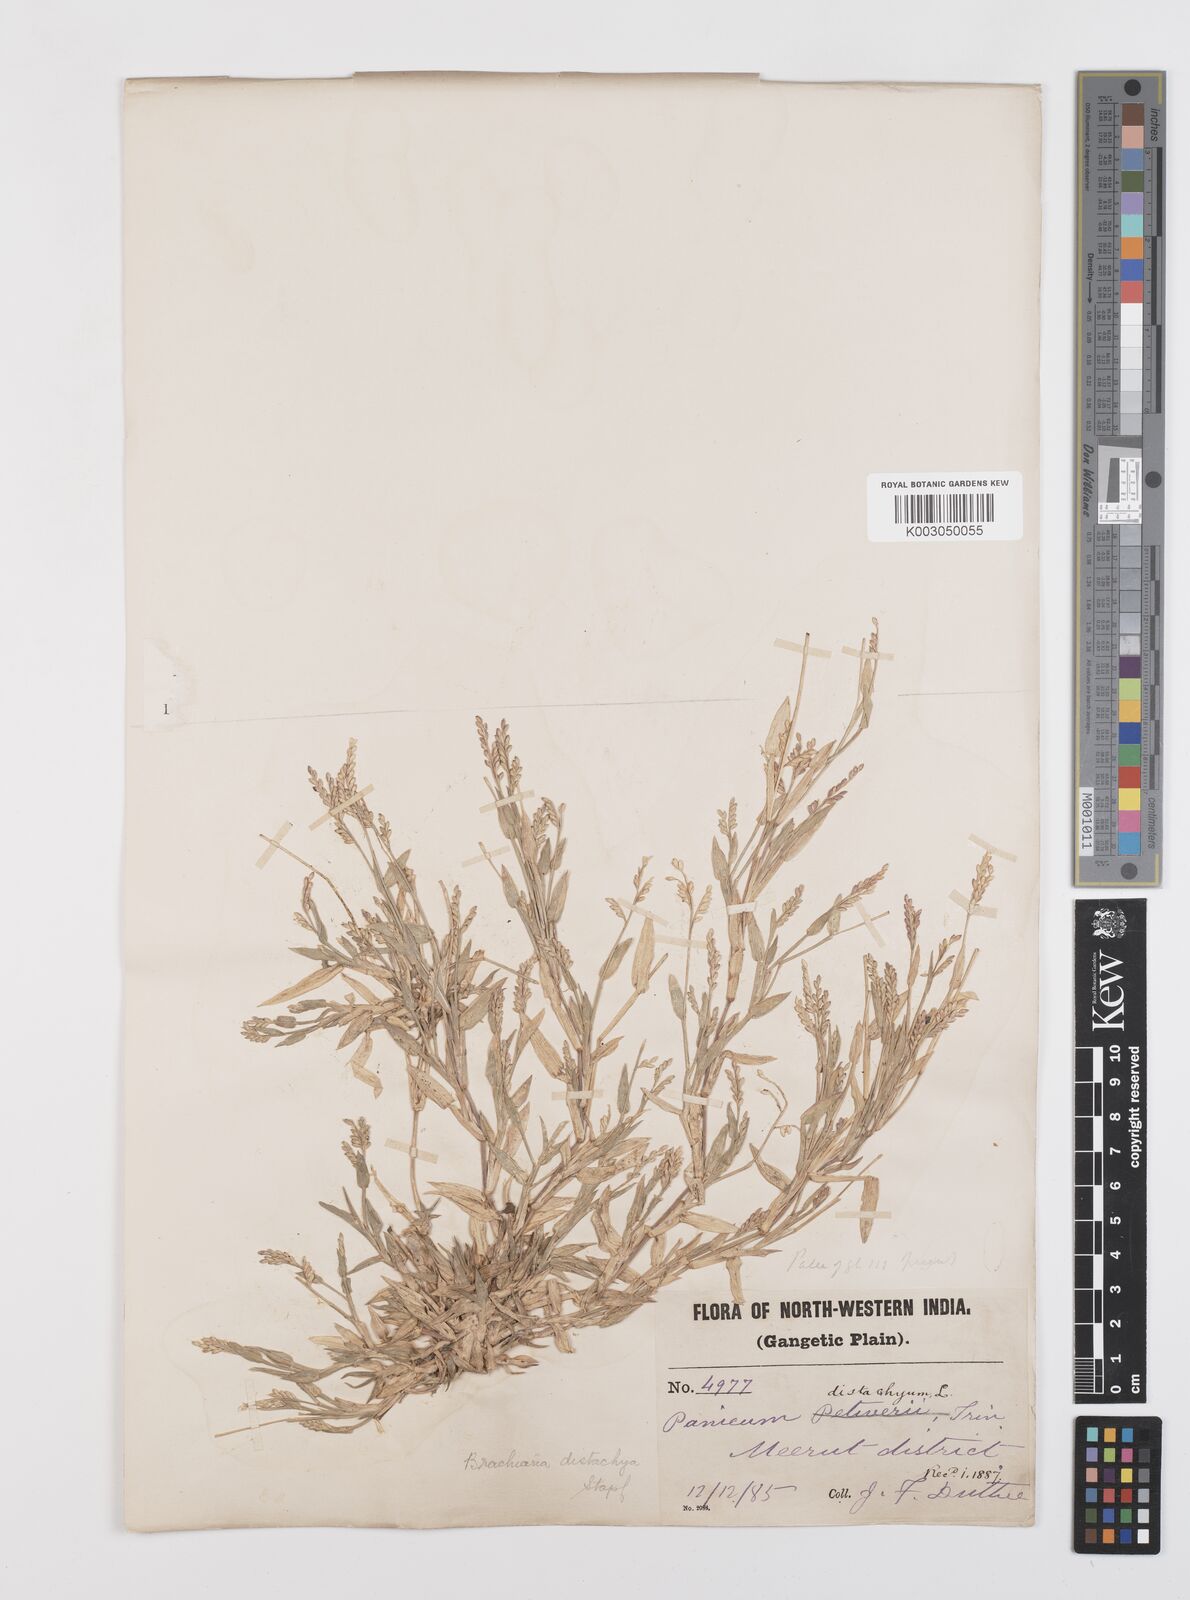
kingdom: Plantae
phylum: Tracheophyta
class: Liliopsida
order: Poales
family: Poaceae
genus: Urochloa
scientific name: Urochloa distachyos
